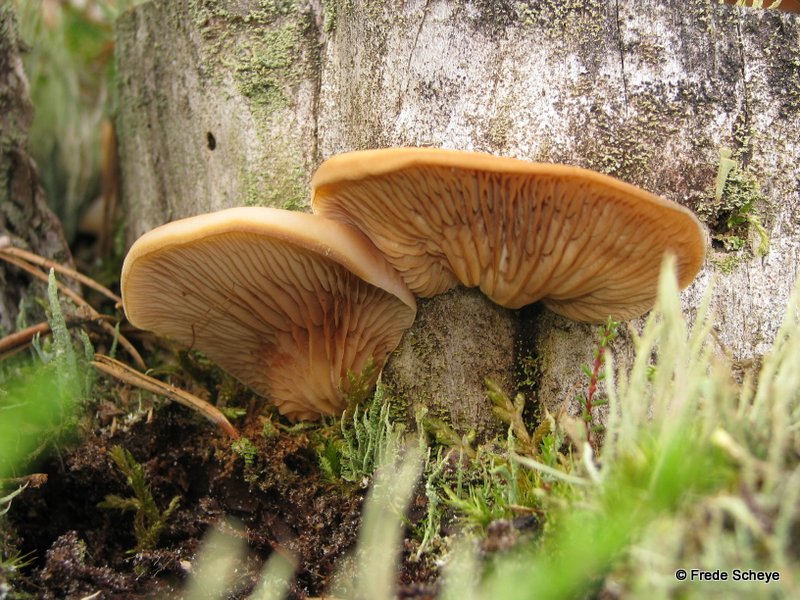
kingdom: Fungi
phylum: Basidiomycota
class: Agaricomycetes
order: Agaricales
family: Crepidotaceae
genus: Crepidotus
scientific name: Crepidotus stenocystis
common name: nåletræs-muslingesvamp
